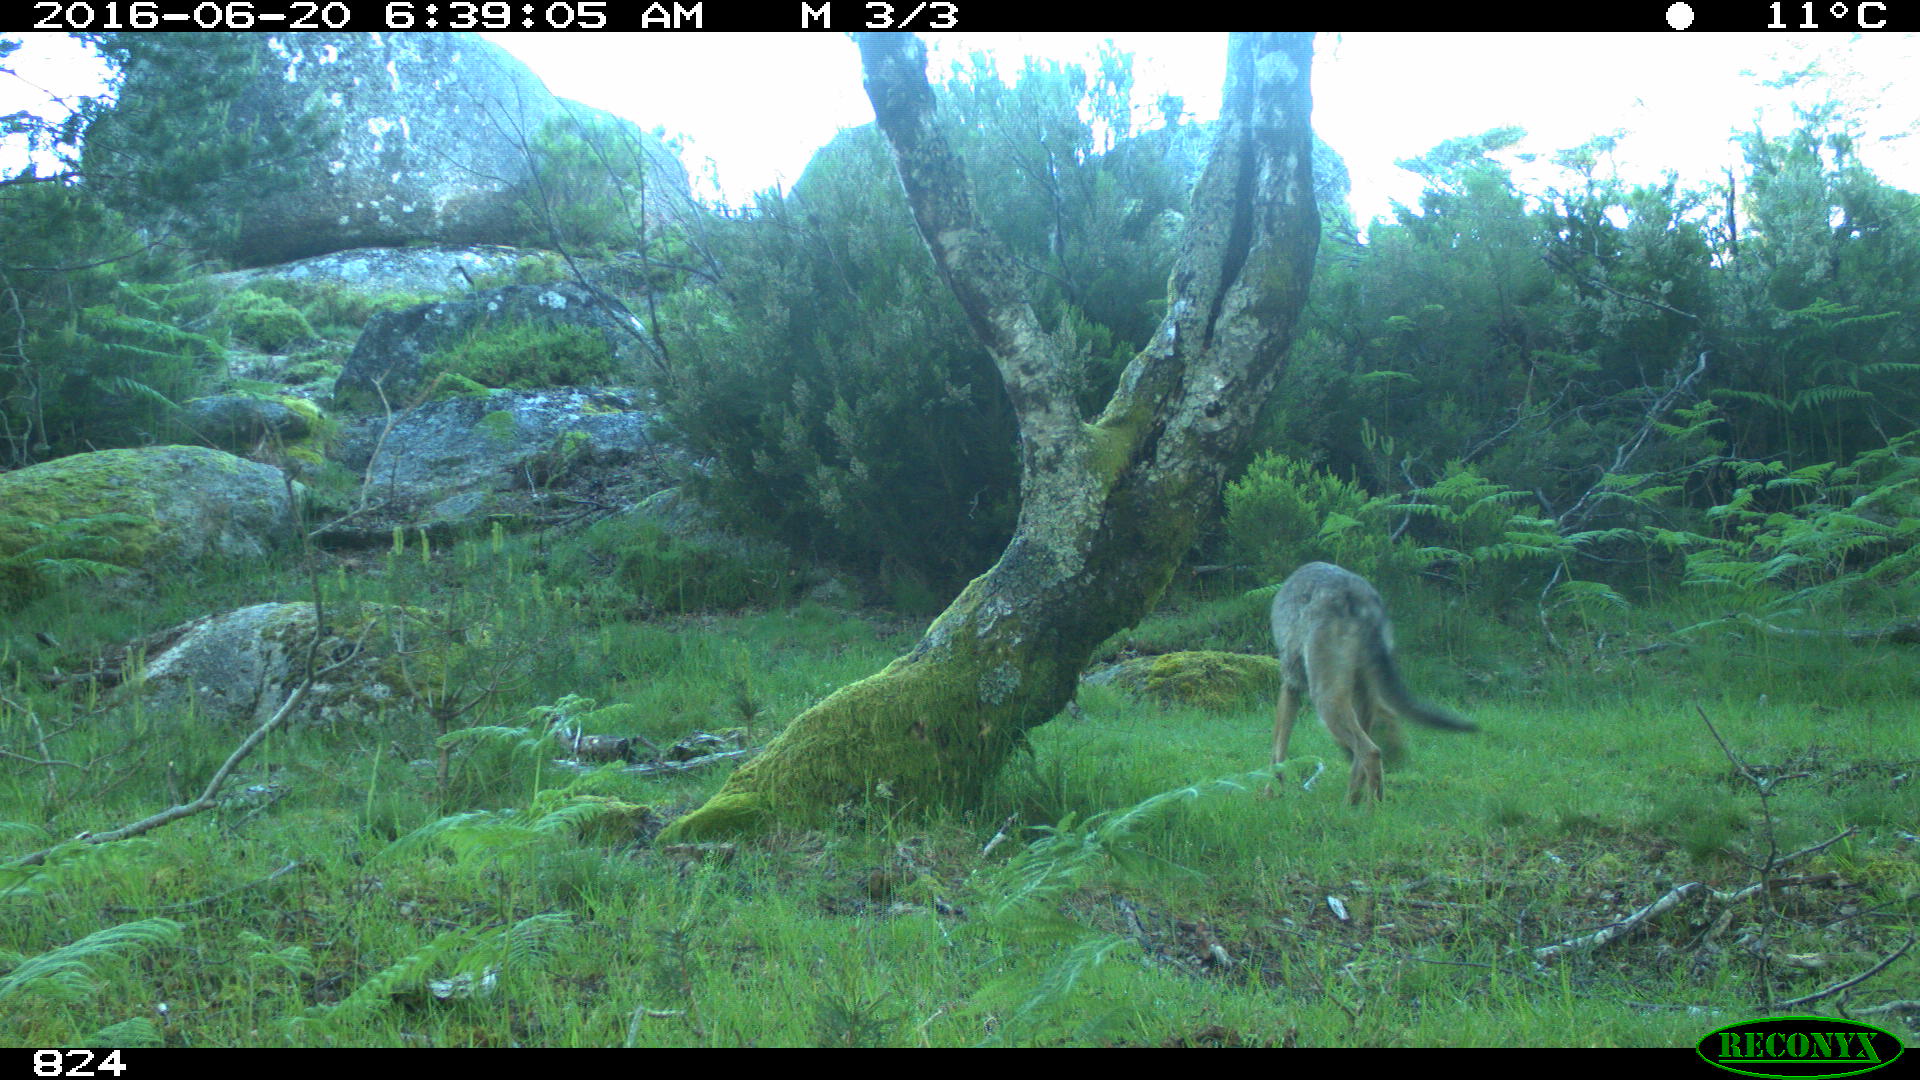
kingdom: Animalia
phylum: Chordata
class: Mammalia
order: Carnivora
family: Canidae
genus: Canis
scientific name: Canis lupus
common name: Gray wolf
